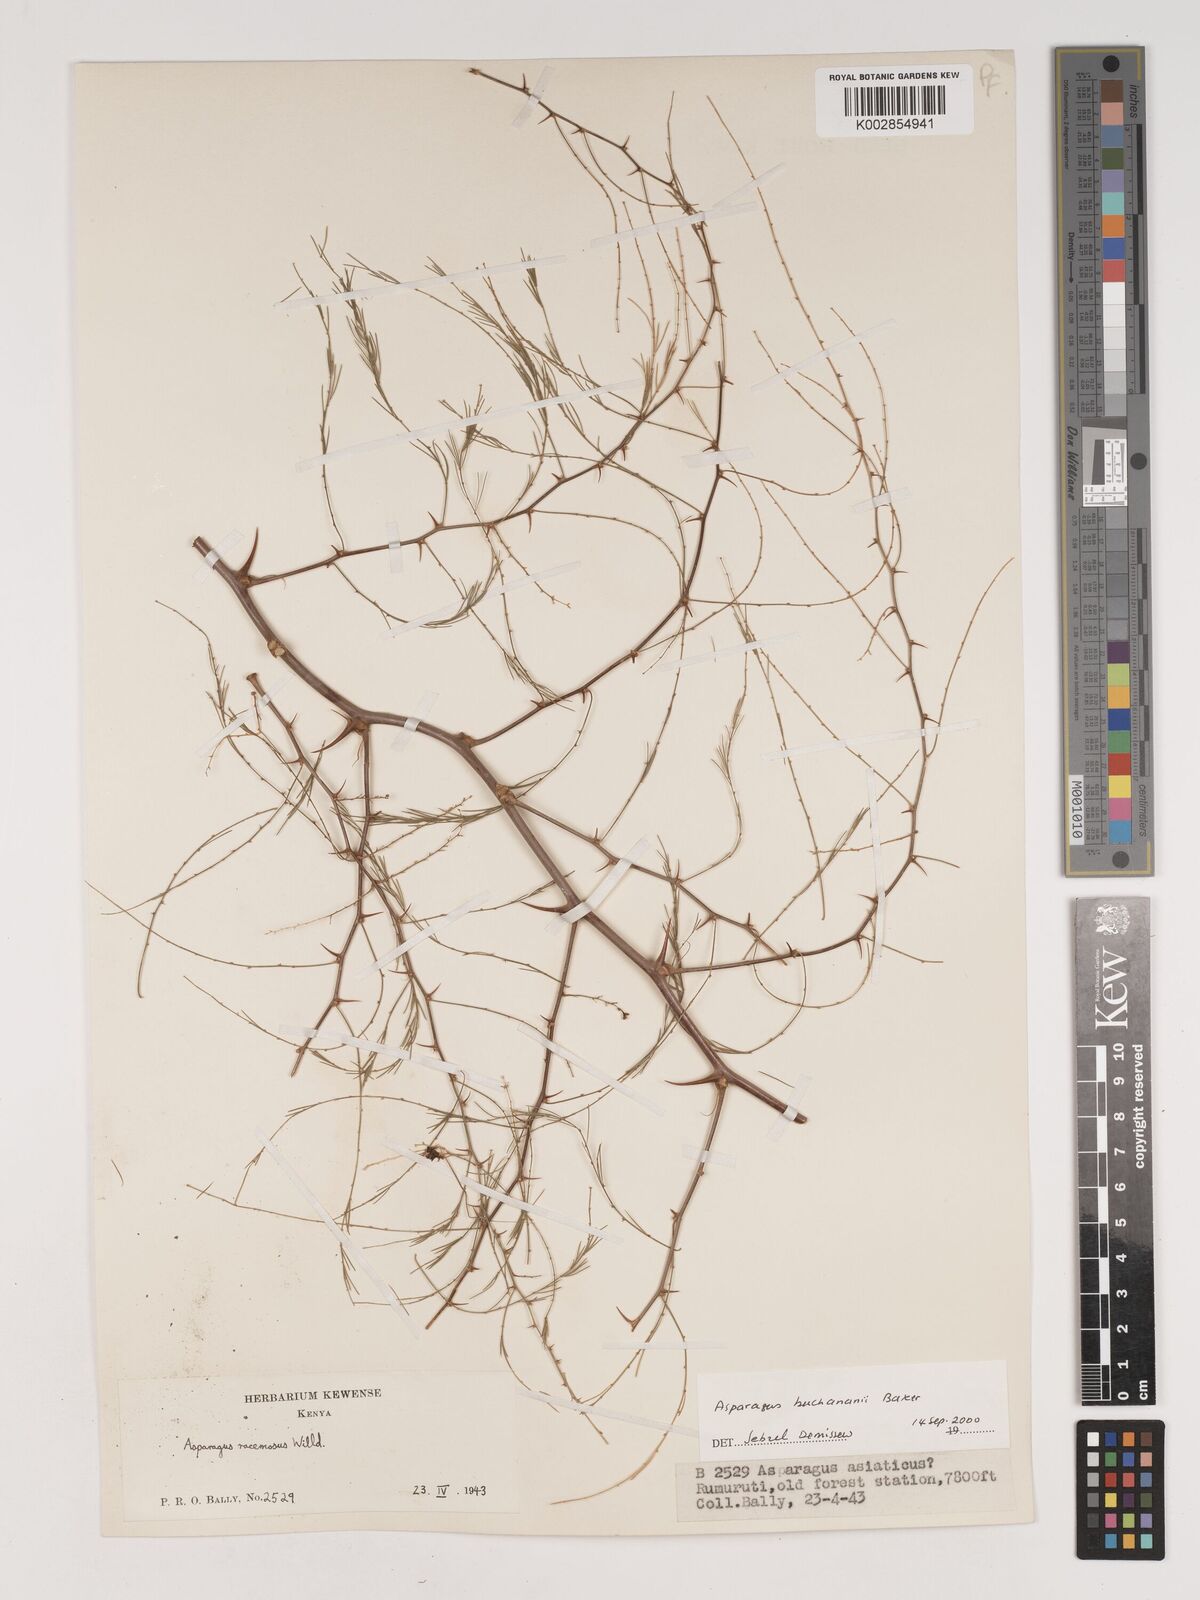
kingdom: Plantae
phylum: Tracheophyta
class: Liliopsida
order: Asparagales
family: Asparagaceae
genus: Asparagus
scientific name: Asparagus buchananii
